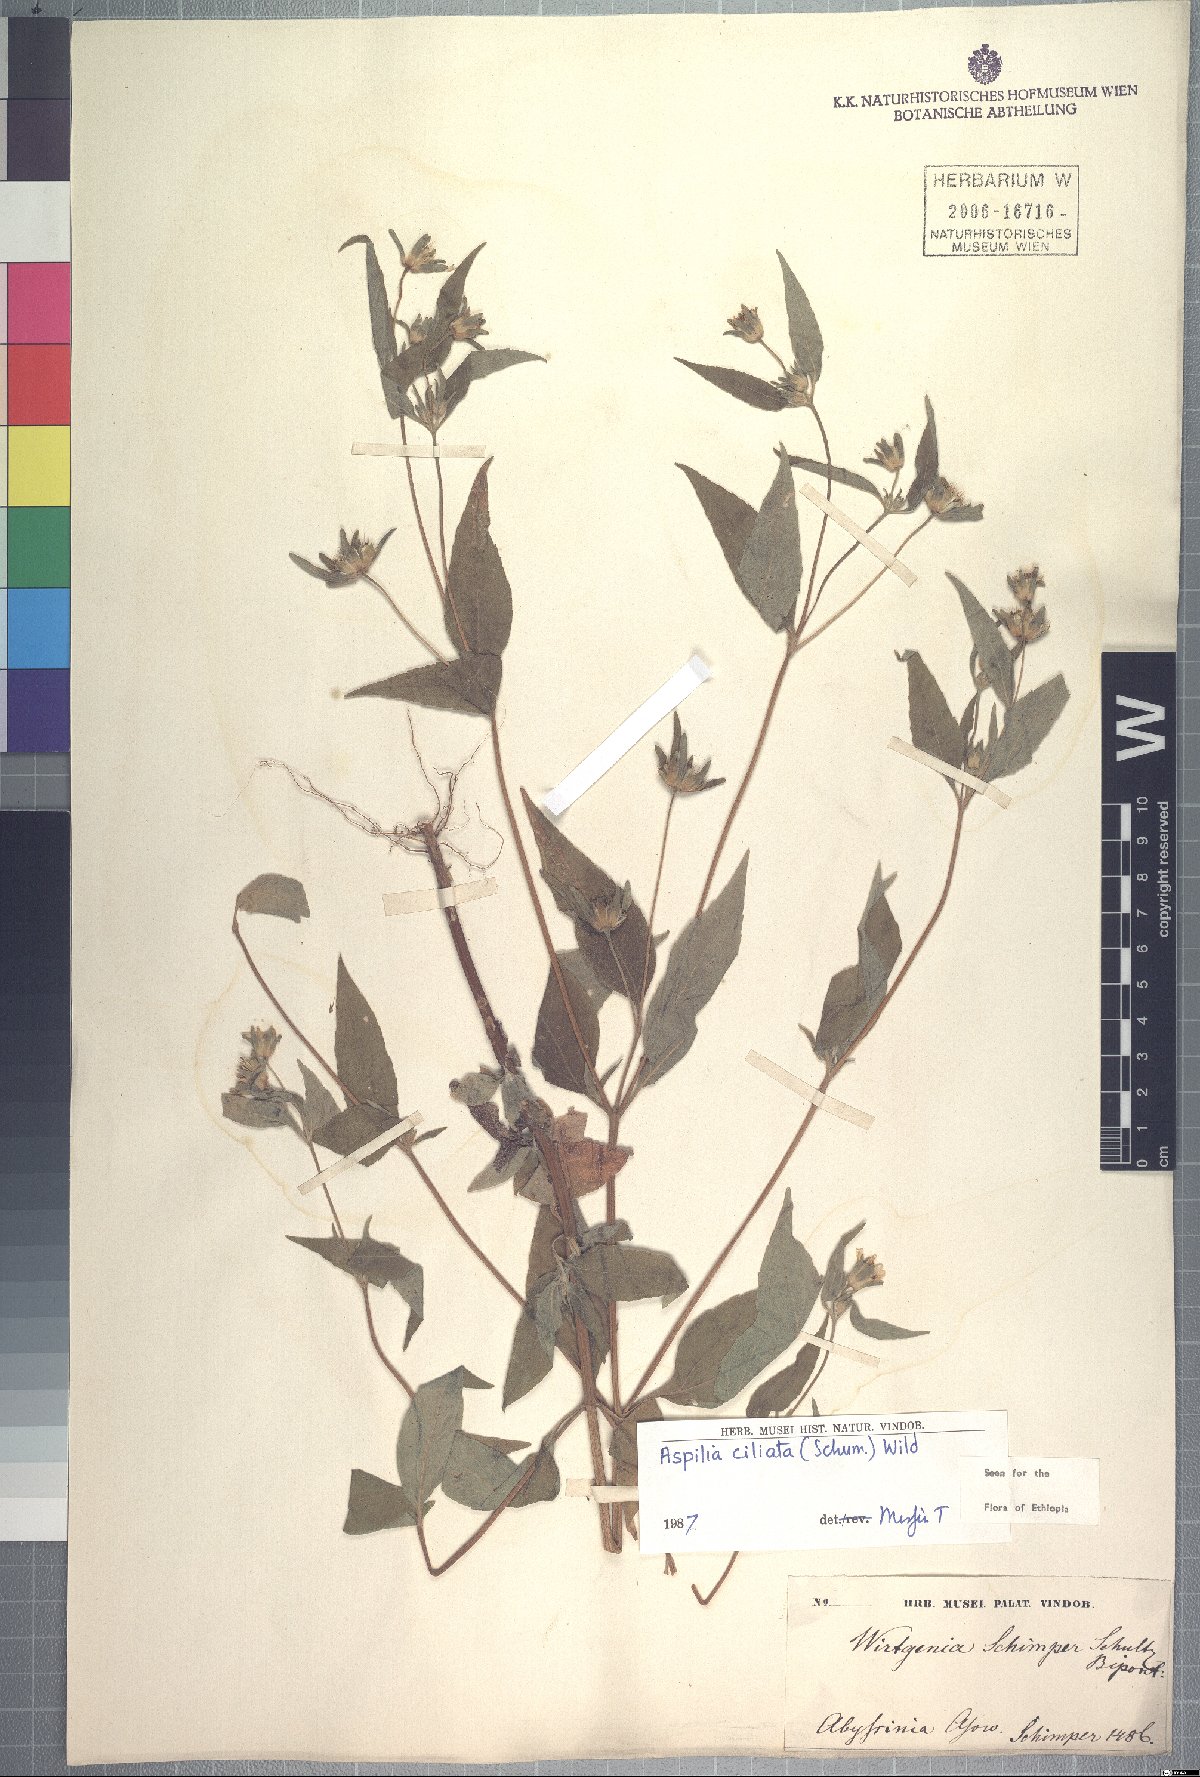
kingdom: Plantae
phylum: Tracheophyta
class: Magnoliopsida
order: Asterales
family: Asteraceae
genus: Aspilia
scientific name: Aspilia helianthoides
